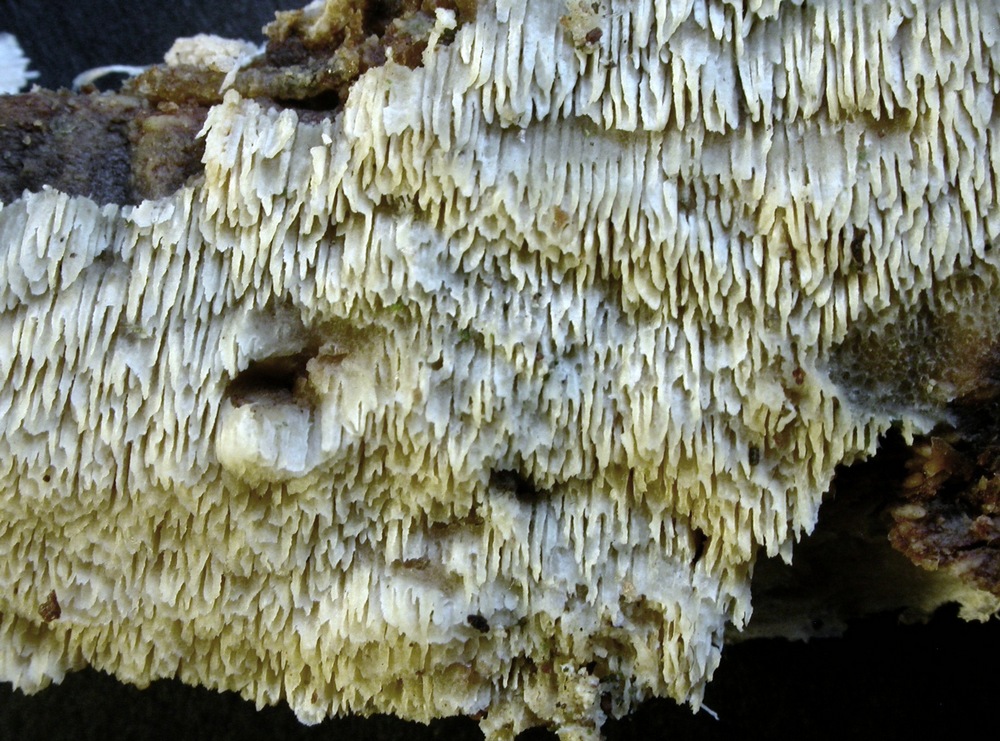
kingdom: Fungi
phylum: Basidiomycota
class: Agaricomycetes
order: Hymenochaetales
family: Schizoporaceae
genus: Schizopora
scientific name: Schizopora paradoxa
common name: hvid tandsvamp
